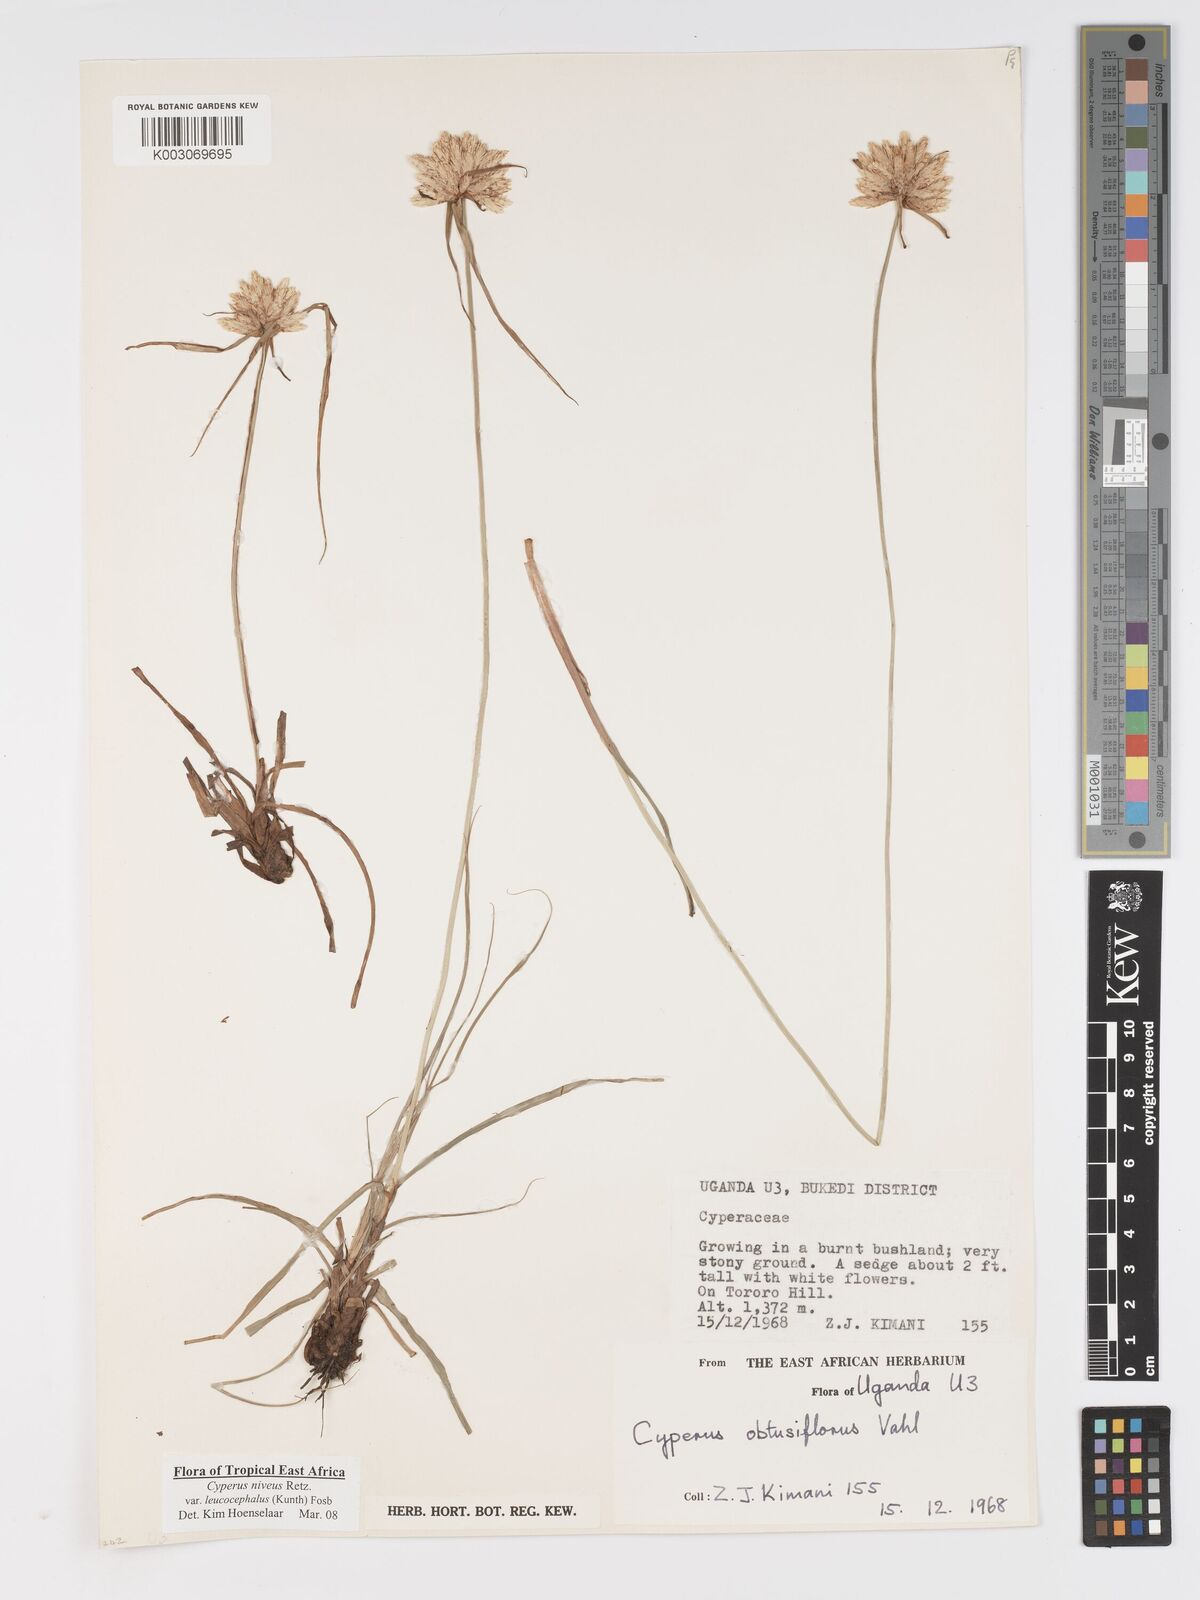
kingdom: Plantae
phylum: Tracheophyta
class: Liliopsida
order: Poales
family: Cyperaceae
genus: Cyperus
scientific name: Cyperus niveus
